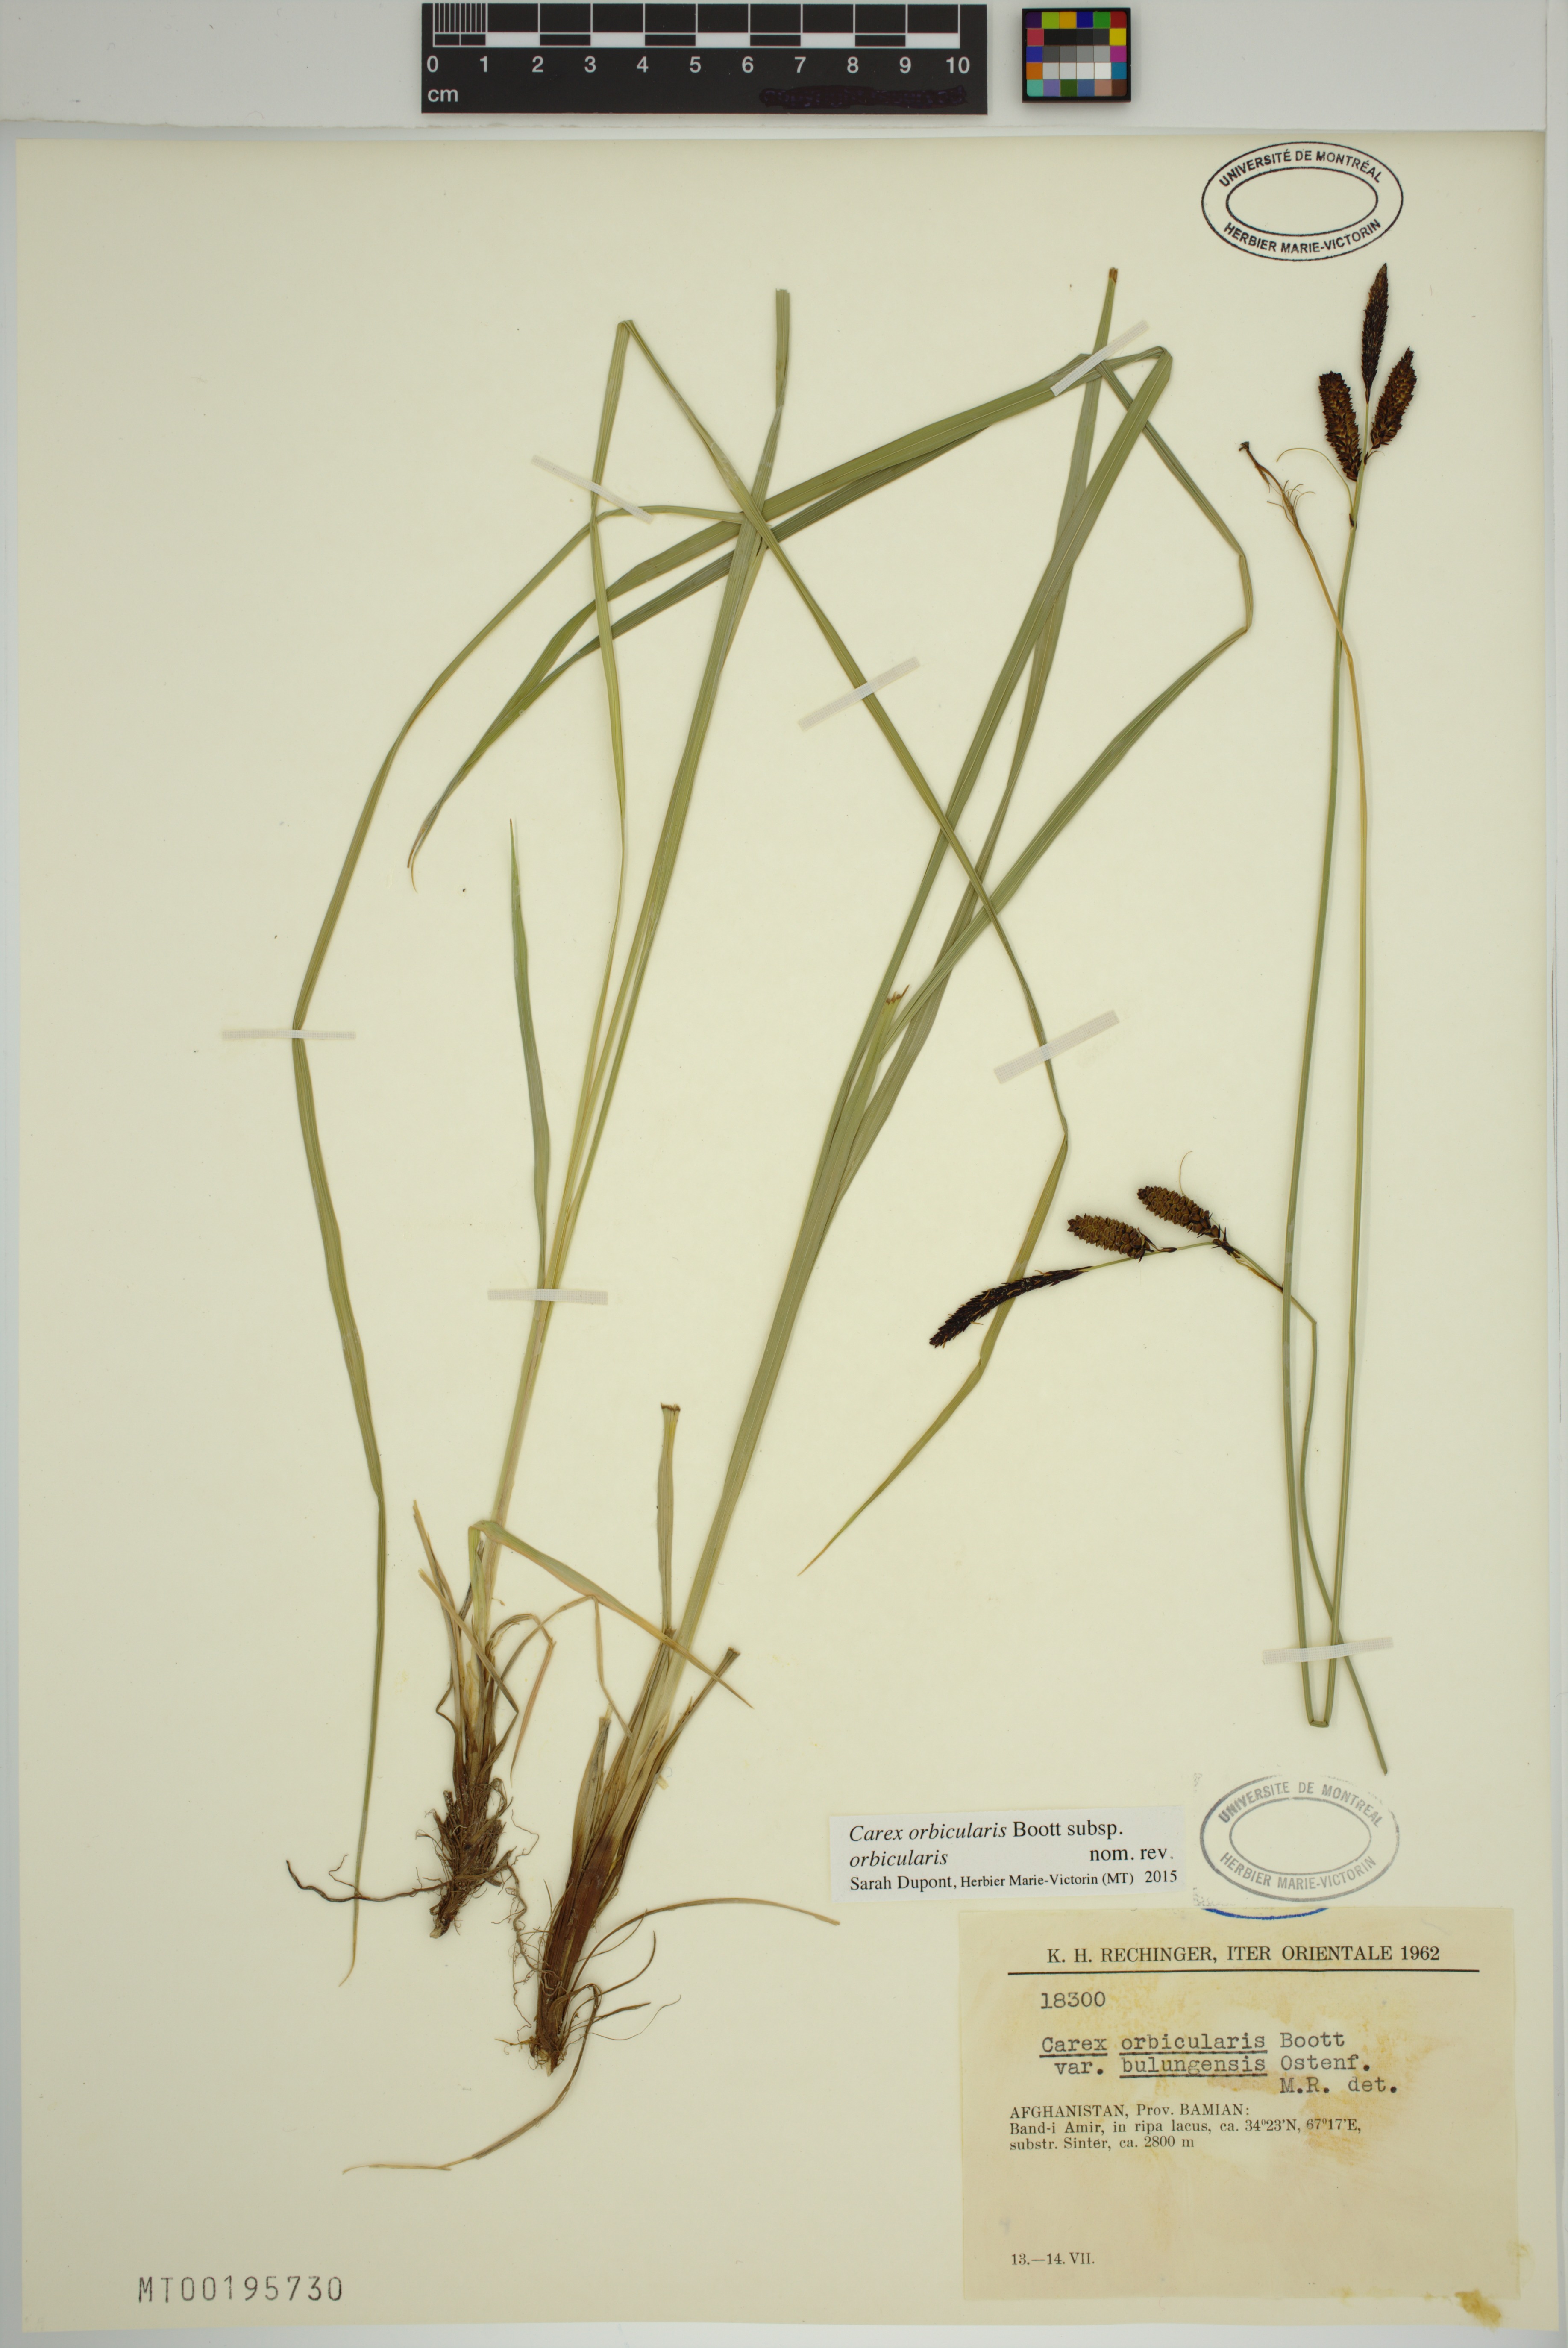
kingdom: Plantae
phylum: Tracheophyta
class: Liliopsida
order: Poales
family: Cyperaceae
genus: Carex
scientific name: Carex orbicularis
